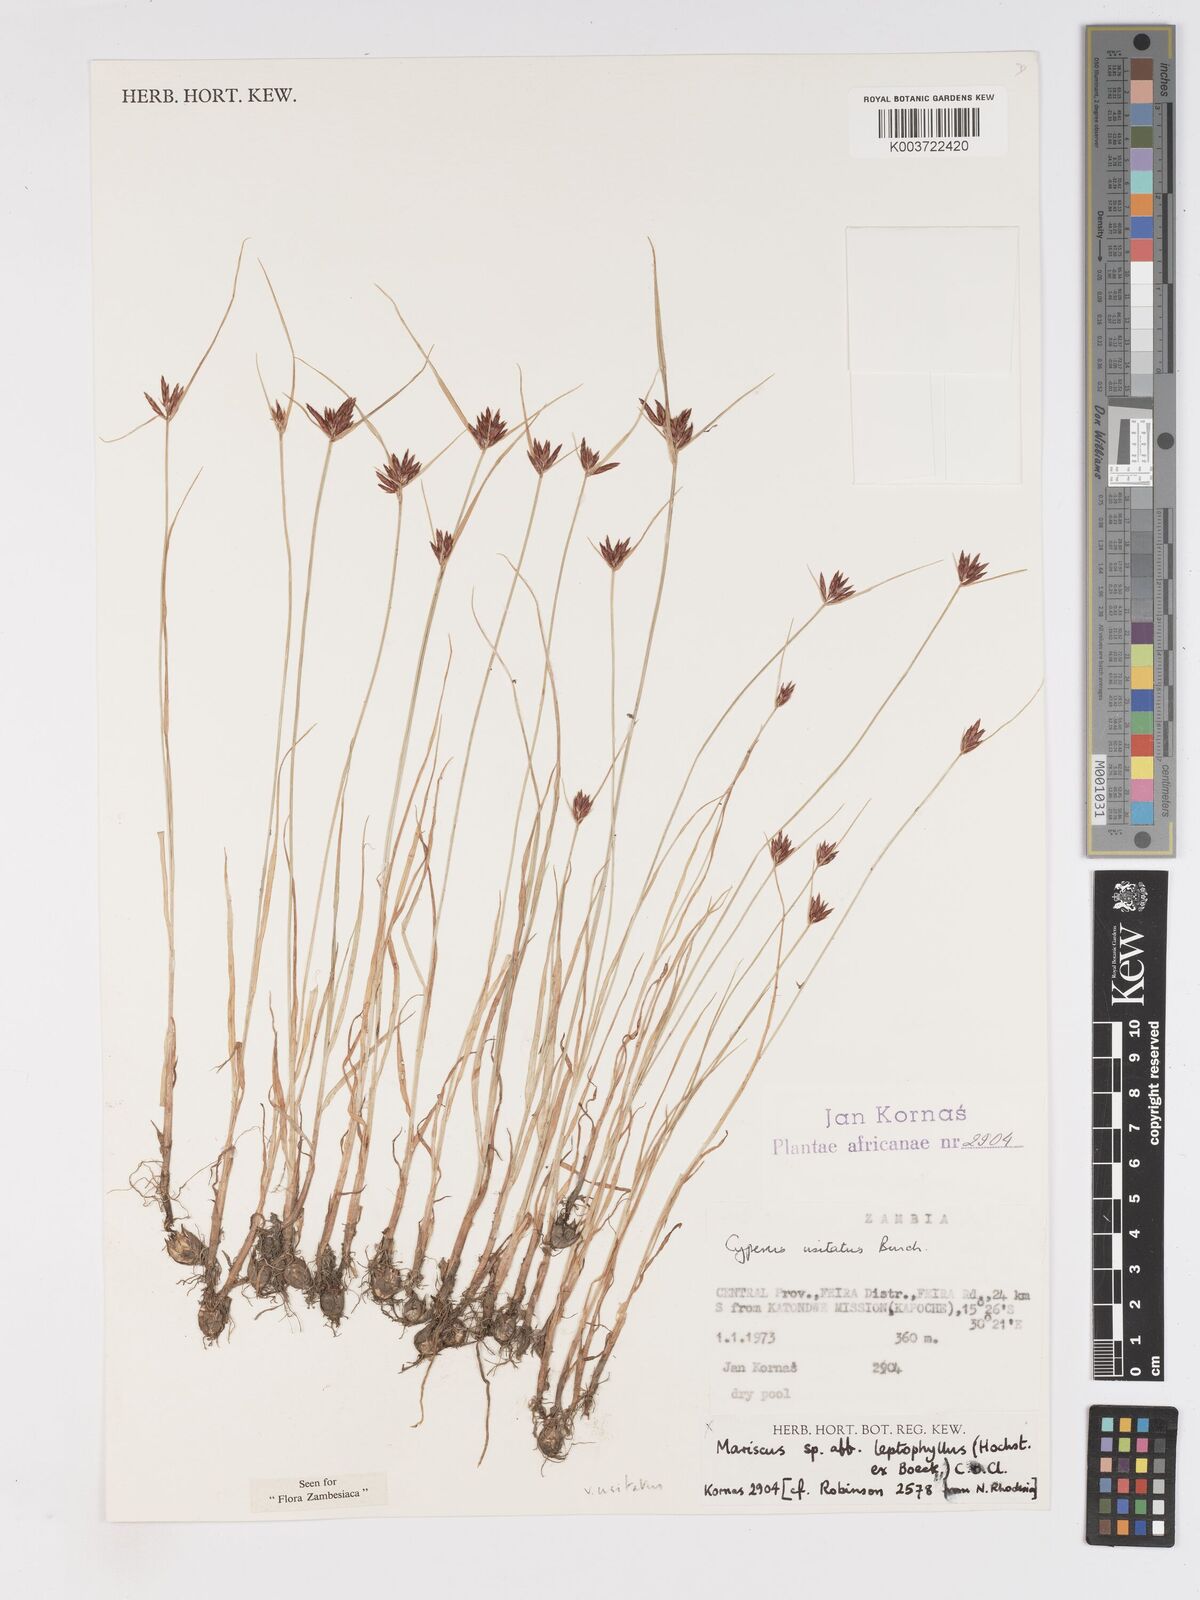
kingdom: Plantae
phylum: Tracheophyta
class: Liliopsida
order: Poales
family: Cyperaceae
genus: Cyperus
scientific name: Cyperus usitatus
